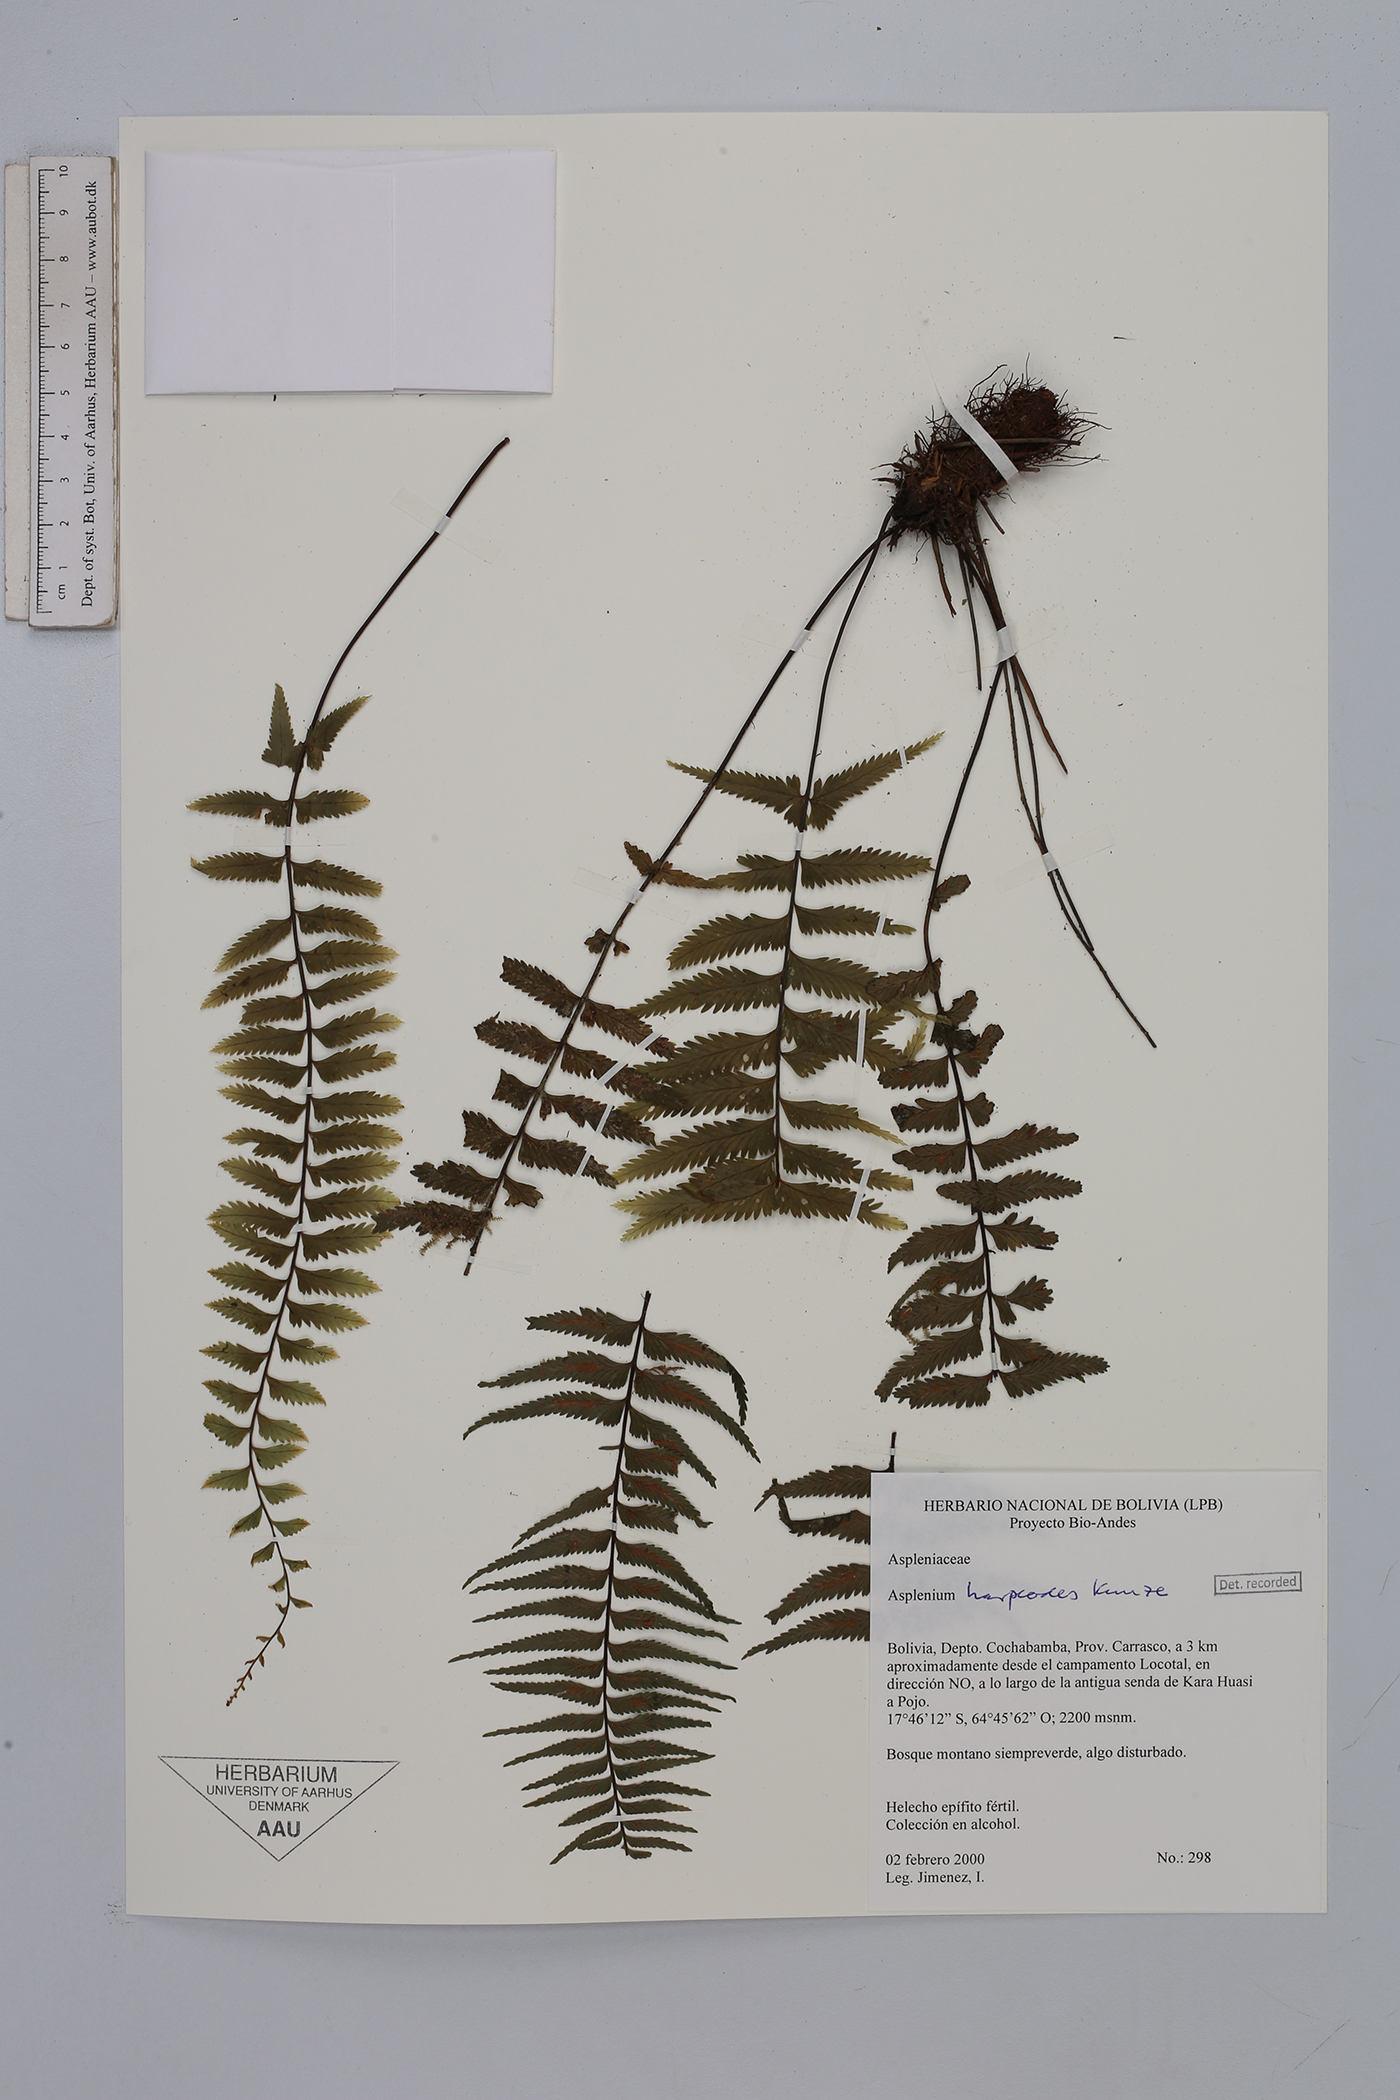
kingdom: Plantae
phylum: Tracheophyta
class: Polypodiopsida
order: Polypodiales
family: Aspleniaceae
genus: Asplenium
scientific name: Asplenium harpeodes
